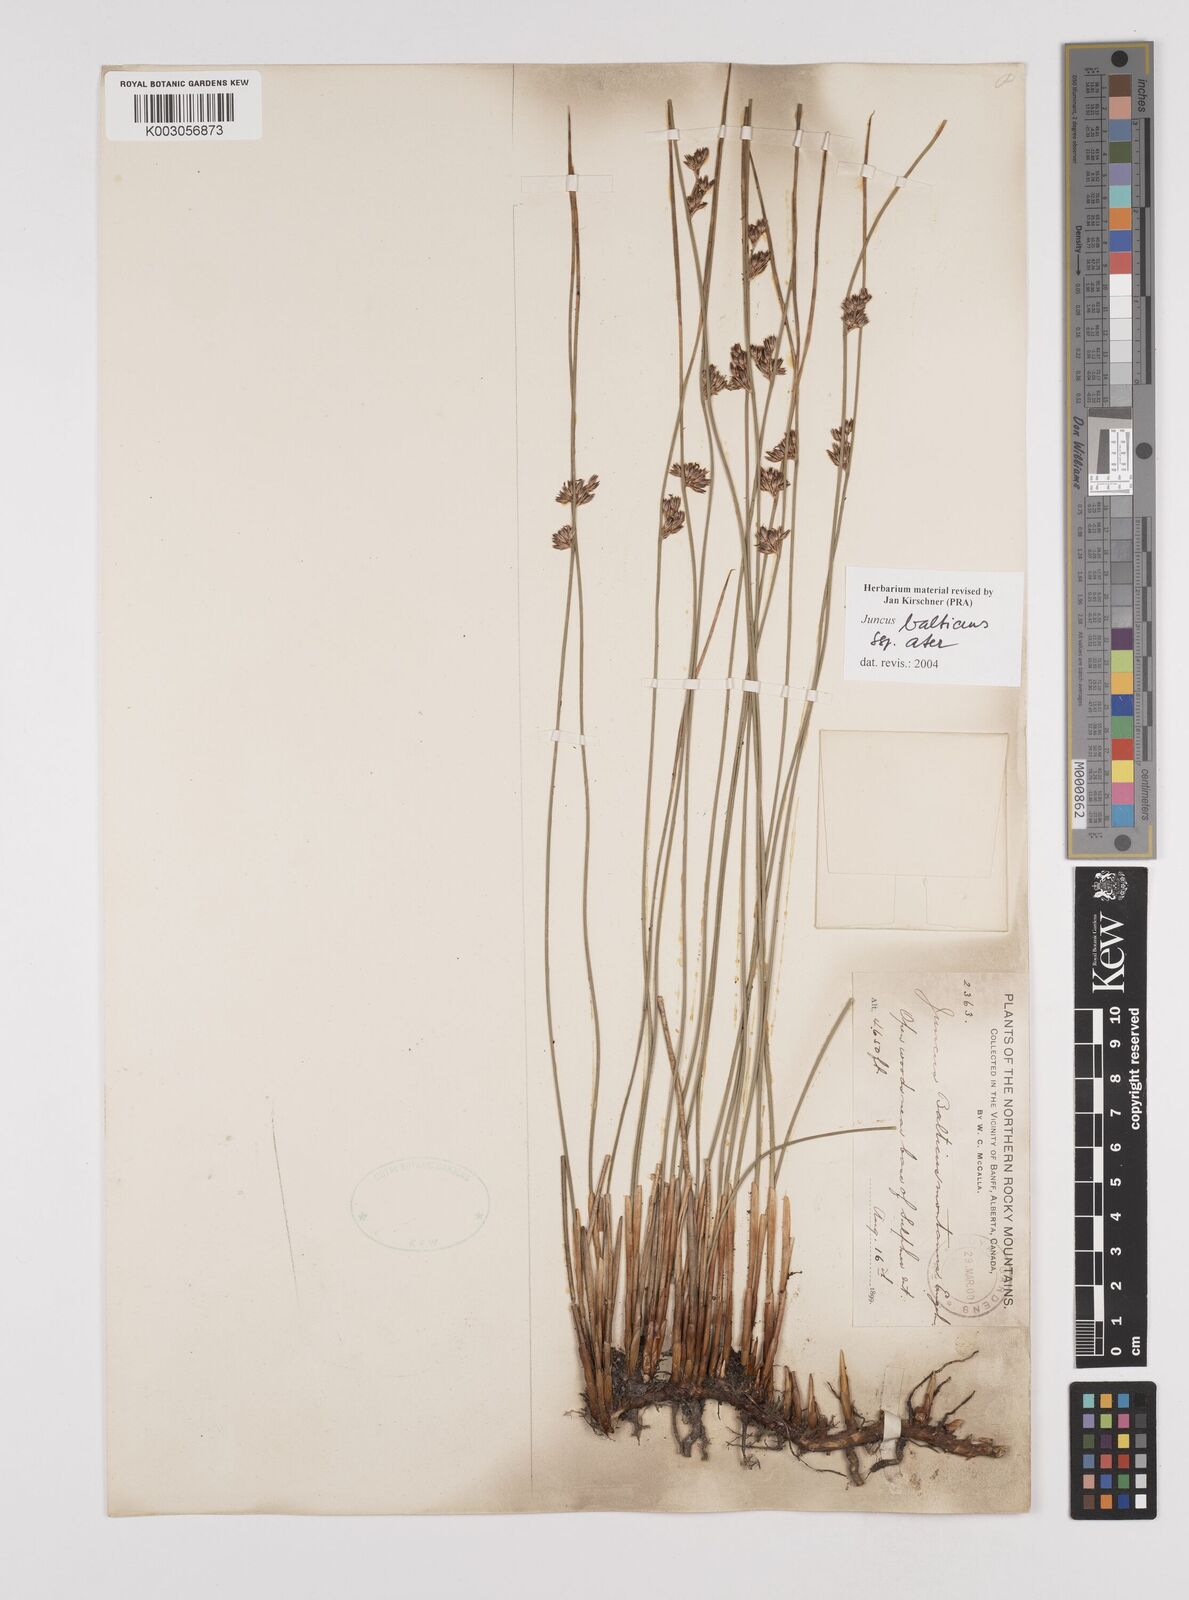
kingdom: Plantae
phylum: Tracheophyta
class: Liliopsida
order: Poales
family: Juncaceae
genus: Juncus
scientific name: Juncus balticus
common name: Baltic rush
